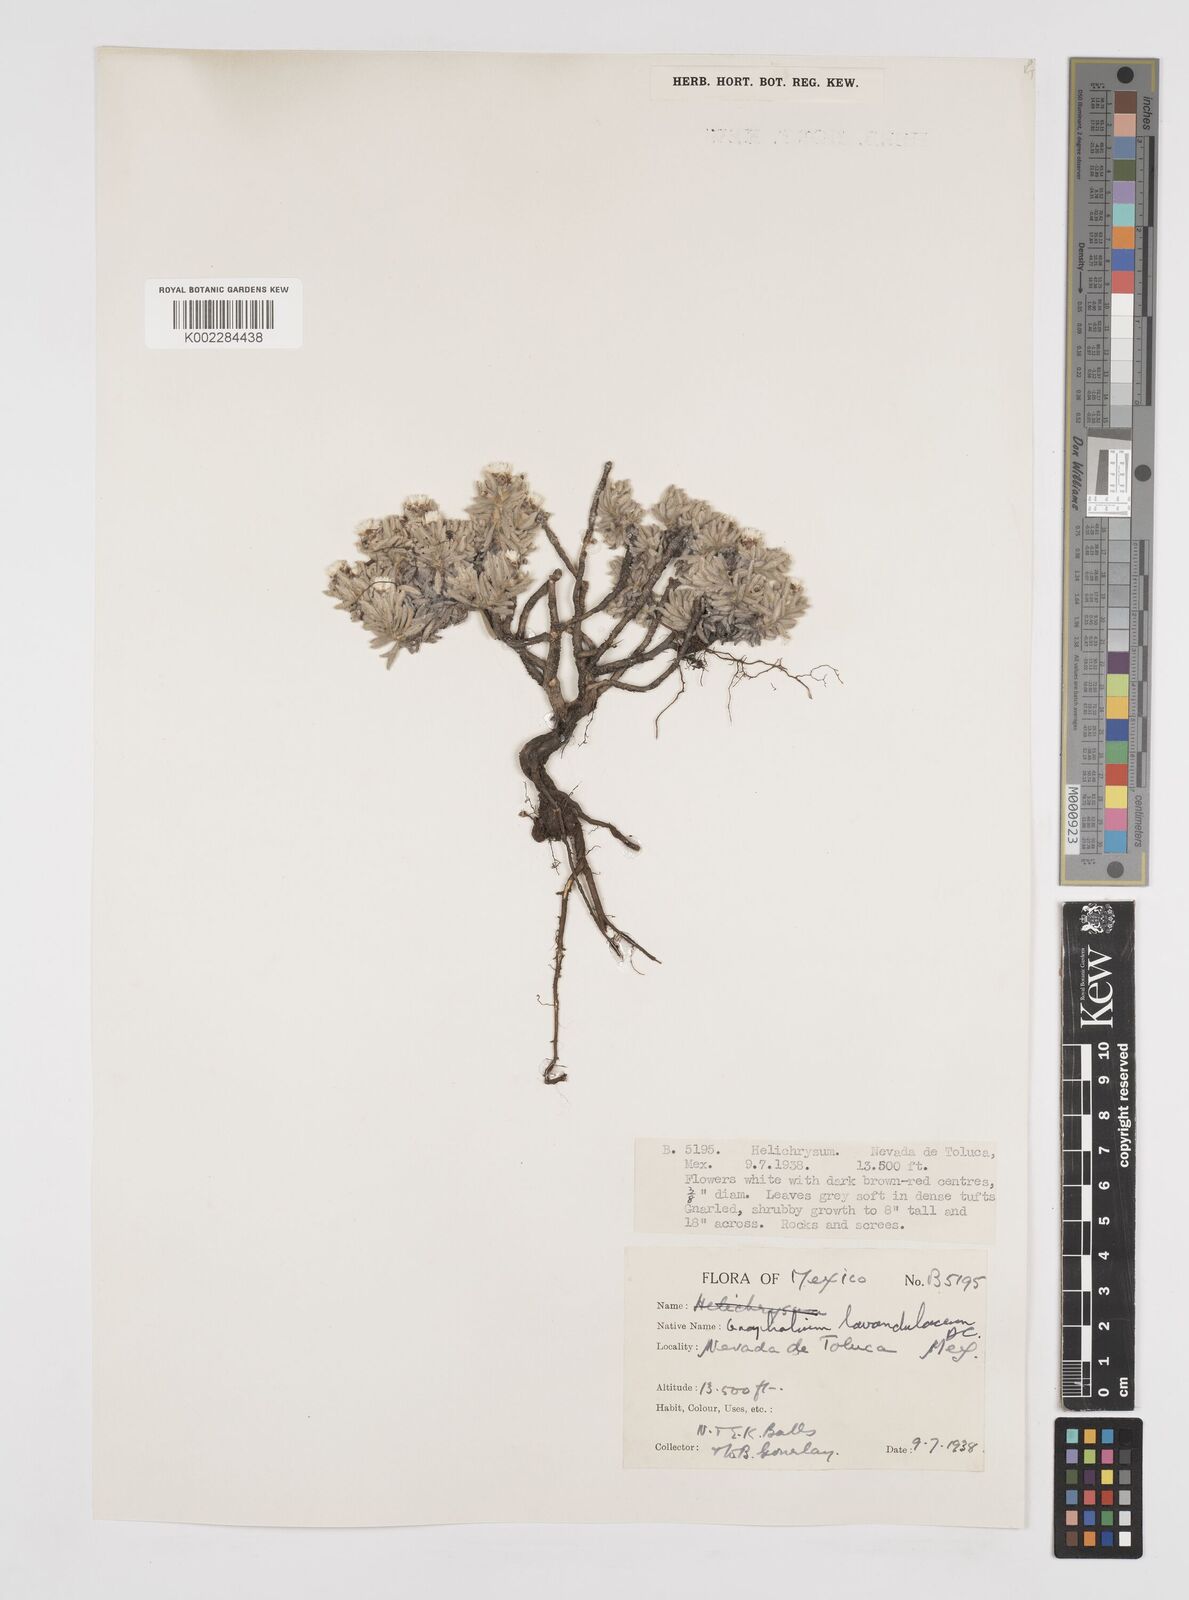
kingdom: Plantae
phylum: Tracheophyta
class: Magnoliopsida
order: Asterales
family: Asteraceae
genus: Gnaphaliothamnus
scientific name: Gnaphaliothamnus lavandulifolius
